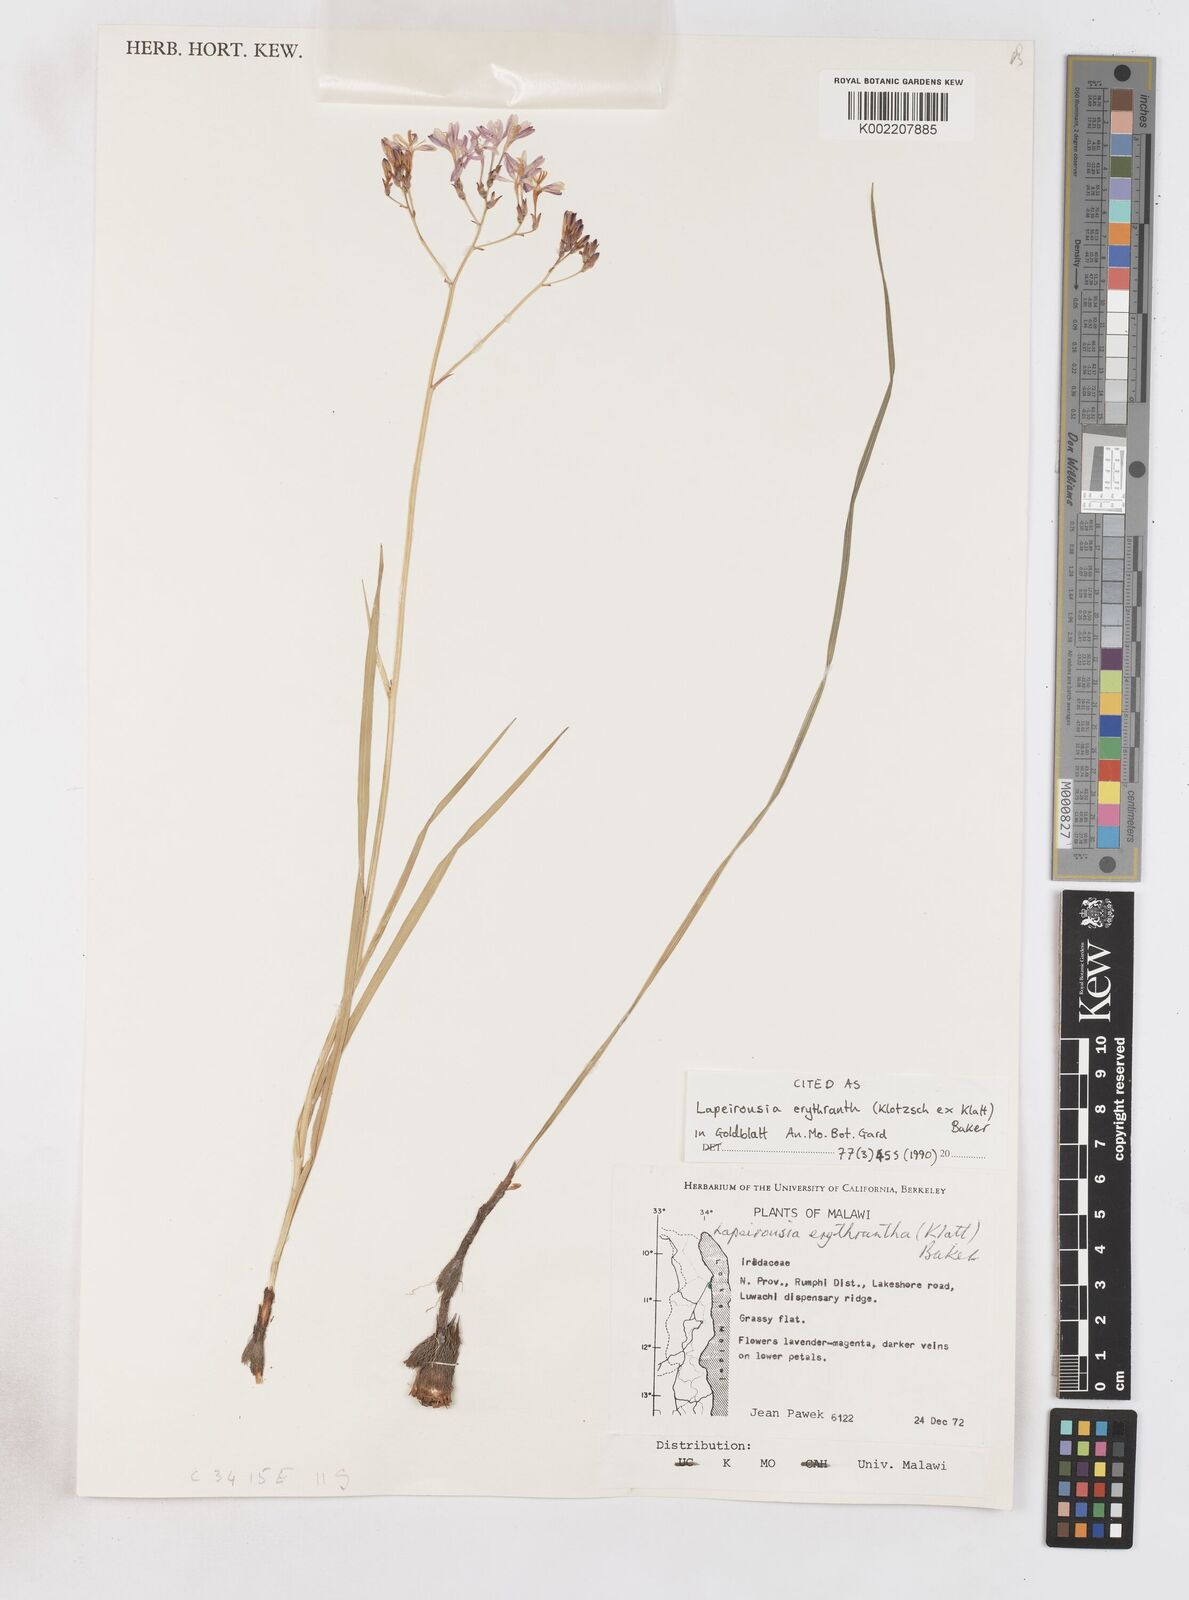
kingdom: Plantae
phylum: Tracheophyta
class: Liliopsida
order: Asparagales
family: Iridaceae
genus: Afrosolen
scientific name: Afrosolen erythranthus
